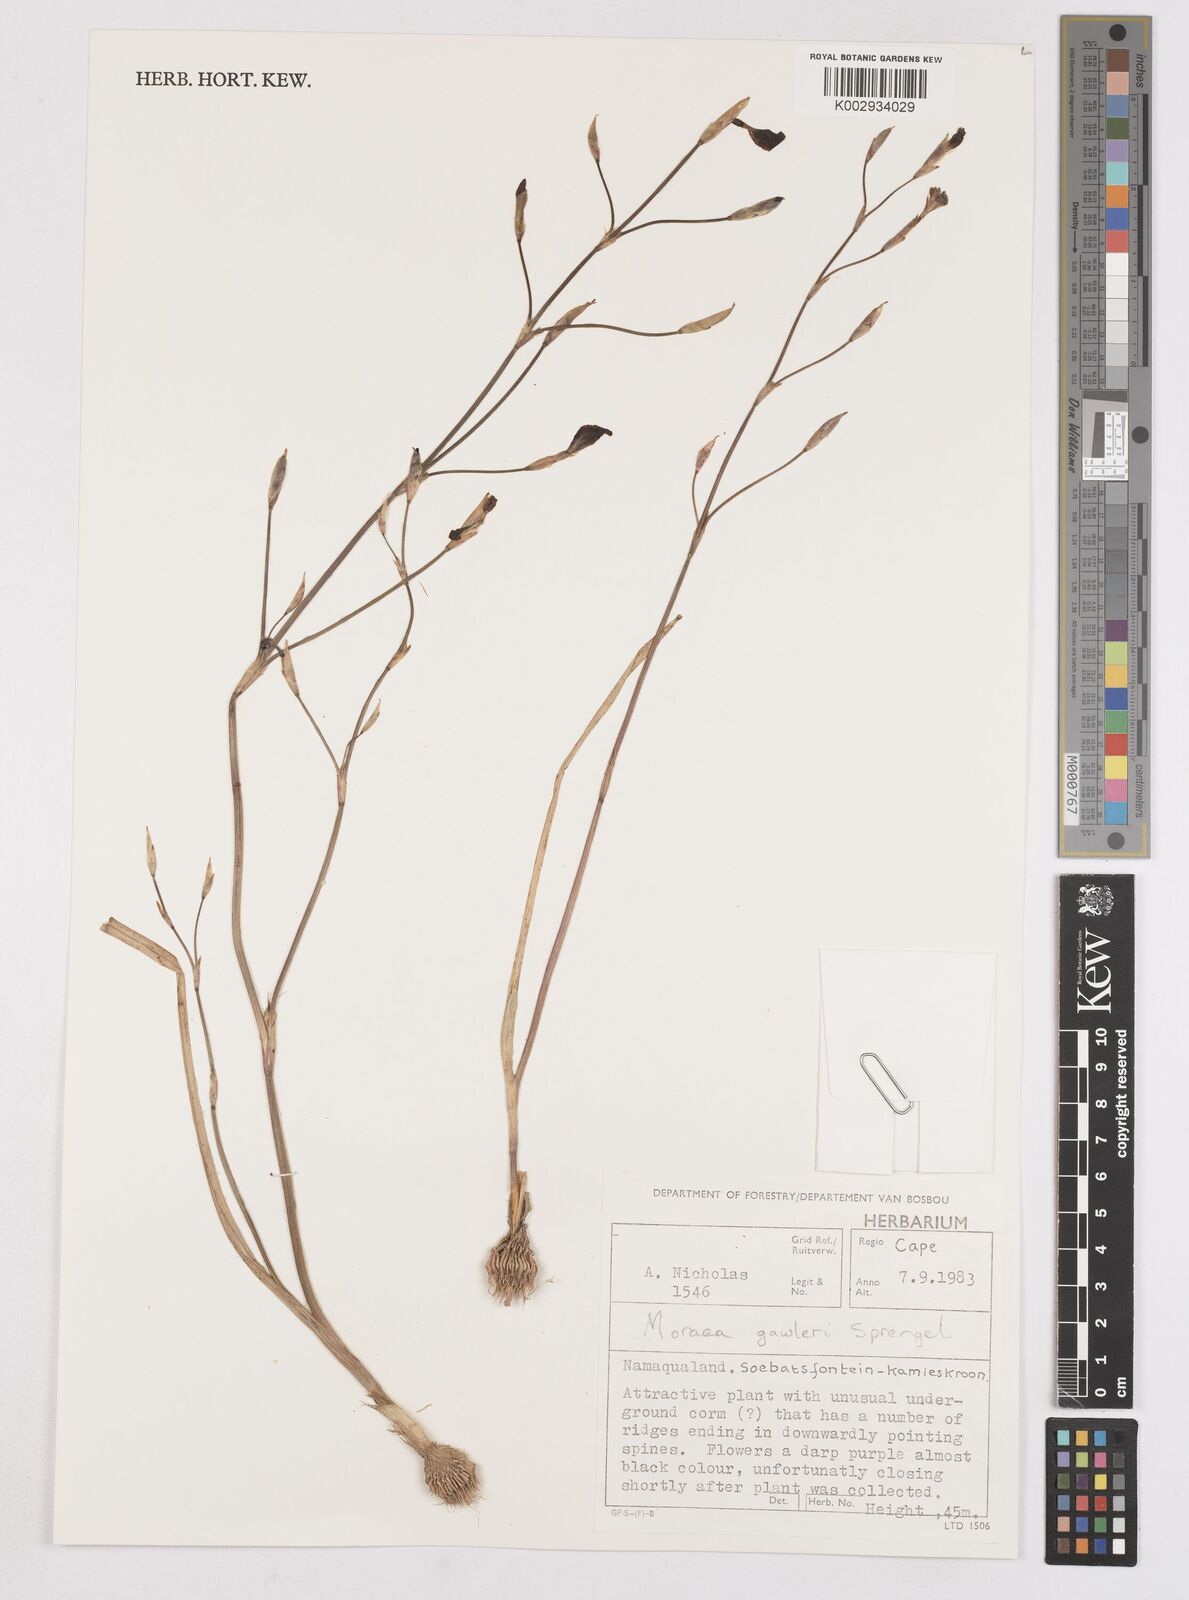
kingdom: Plantae
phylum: Tracheophyta
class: Liliopsida
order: Asparagales
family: Iridaceae
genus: Moraea
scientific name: Moraea gawleri
